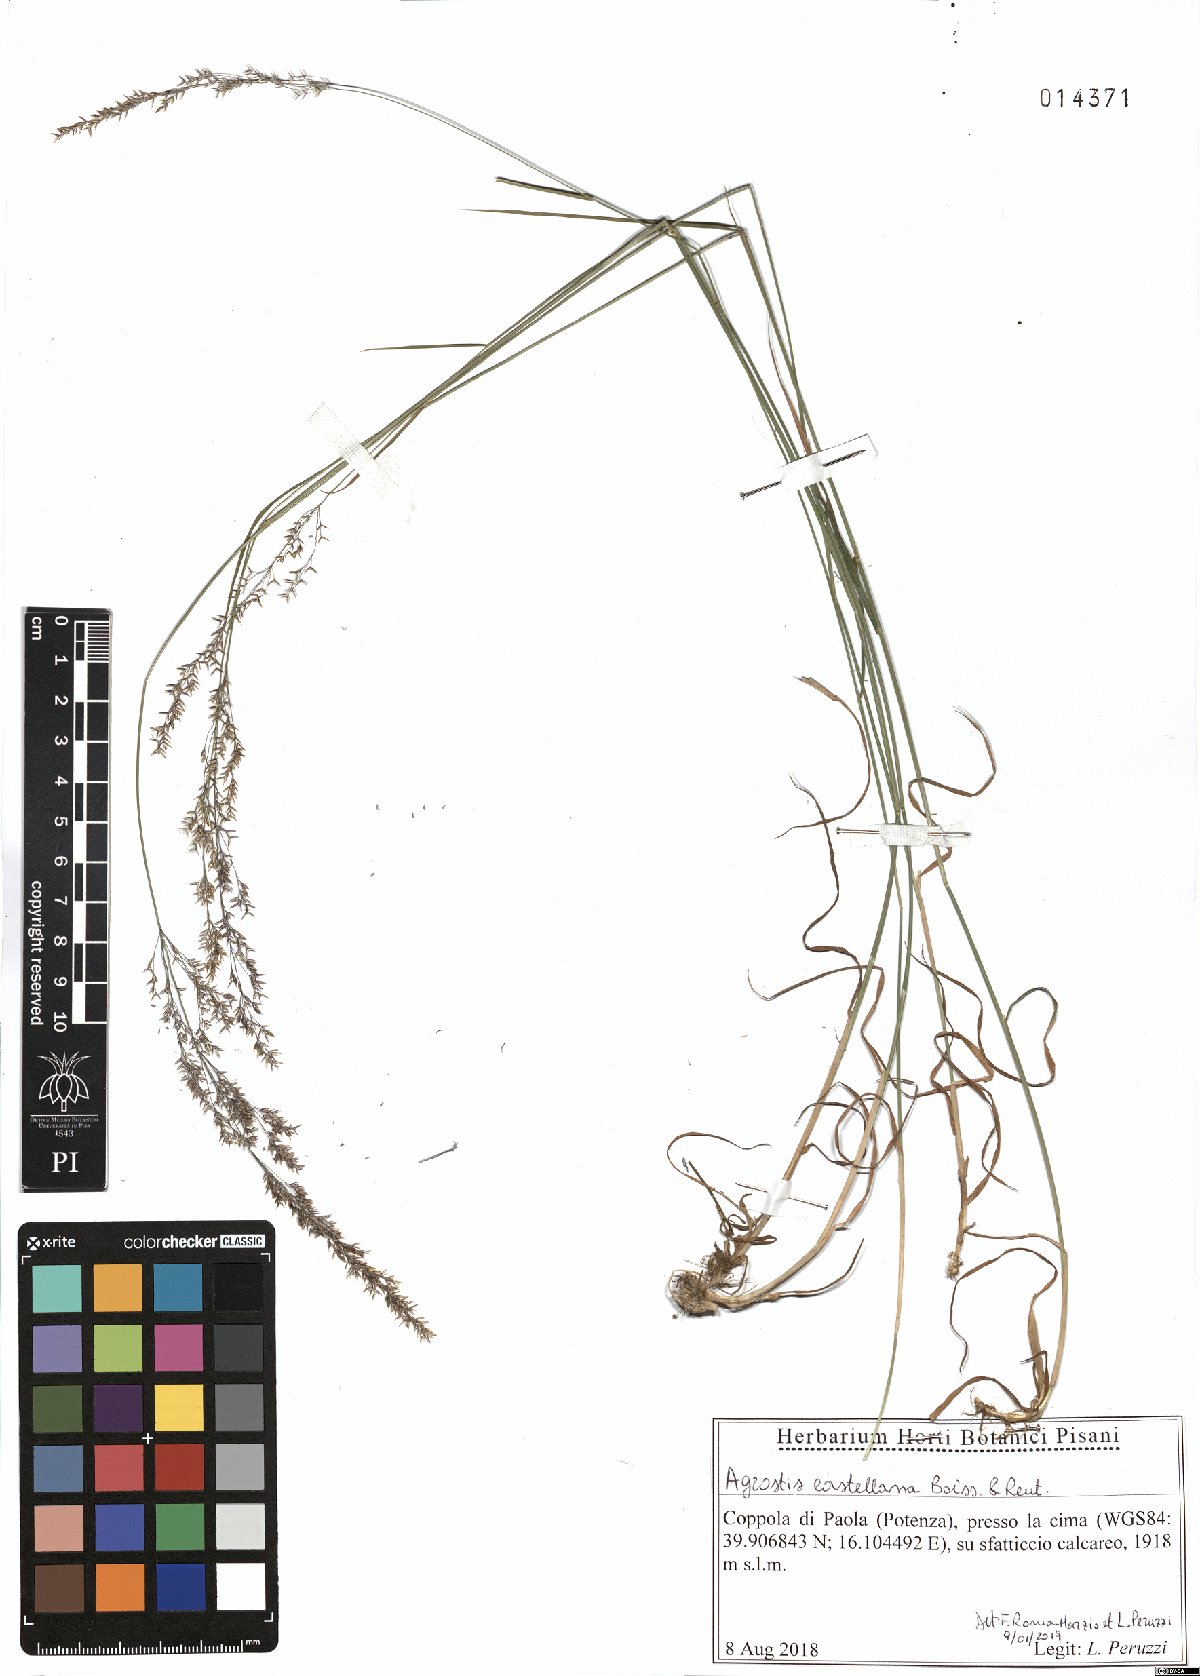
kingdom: Plantae
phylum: Tracheophyta
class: Liliopsida
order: Poales
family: Poaceae
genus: Agrostis
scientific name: Agrostis castellana
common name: Highland bent
